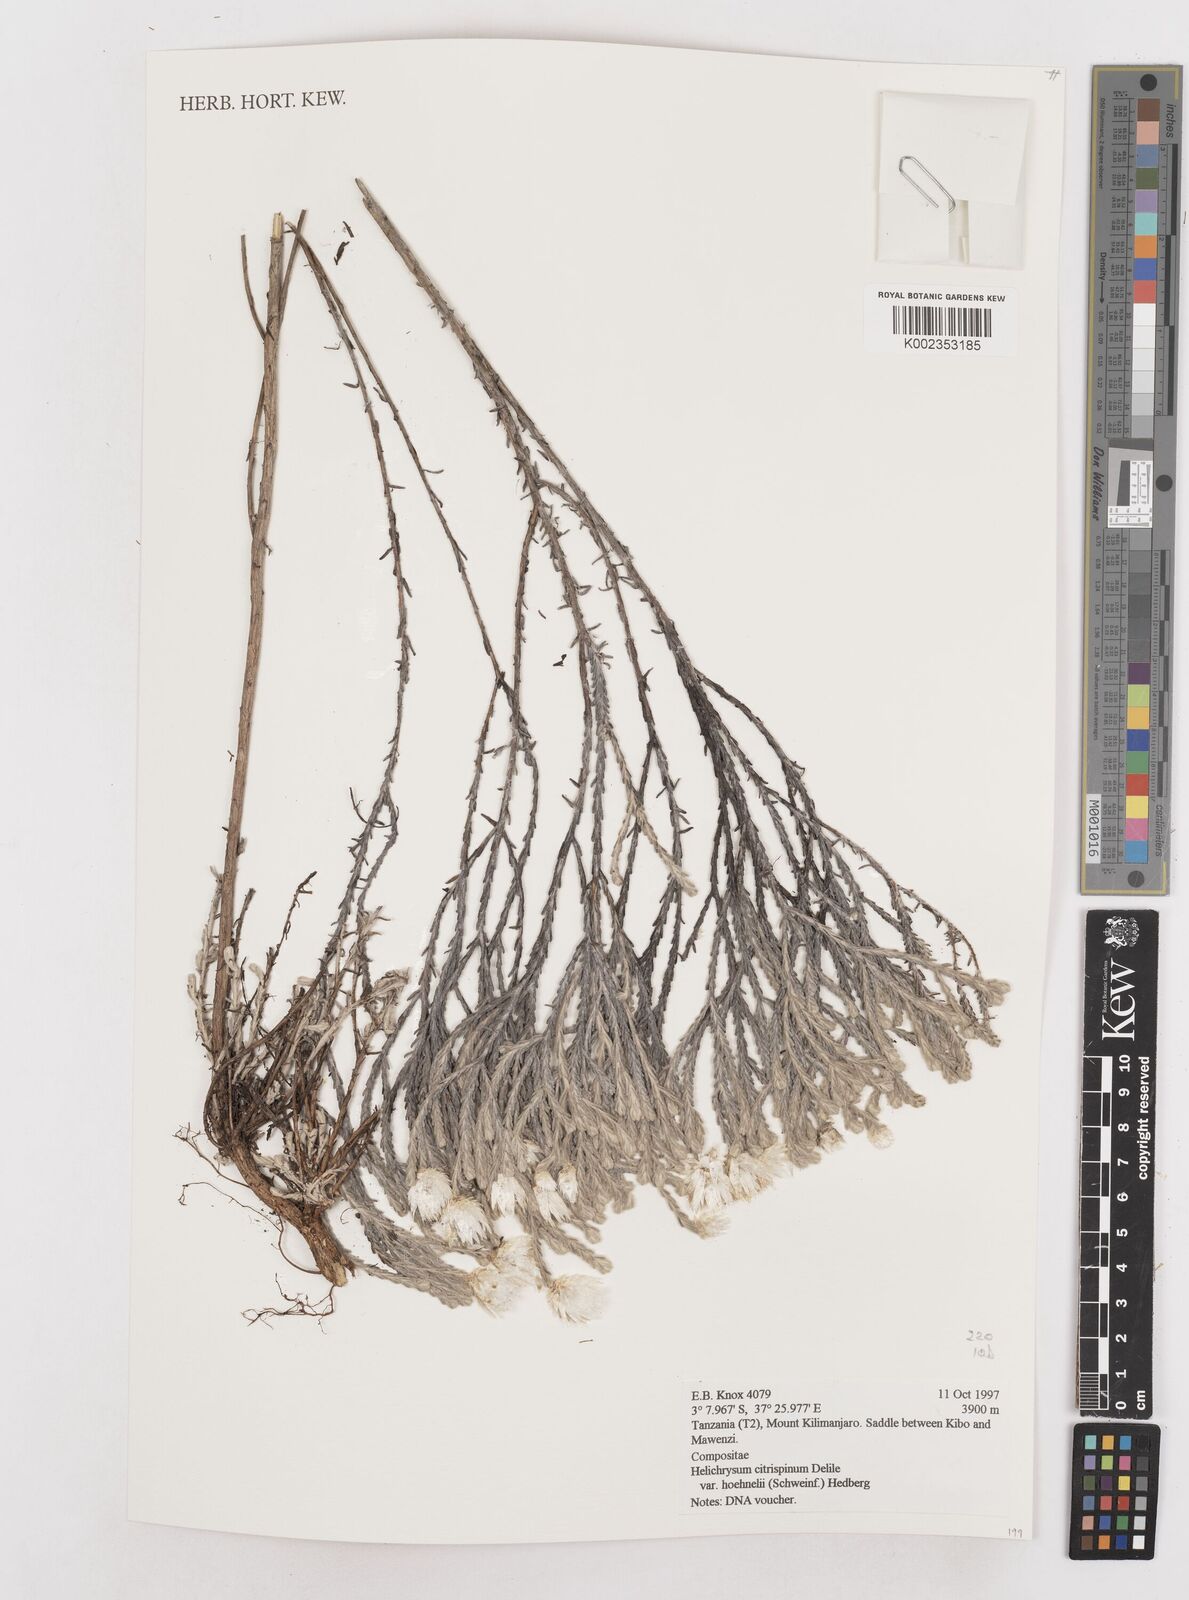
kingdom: Plantae
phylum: Tracheophyta
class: Magnoliopsida
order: Asterales
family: Asteraceae
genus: Helichrysum
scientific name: Helichrysum citrispinum
